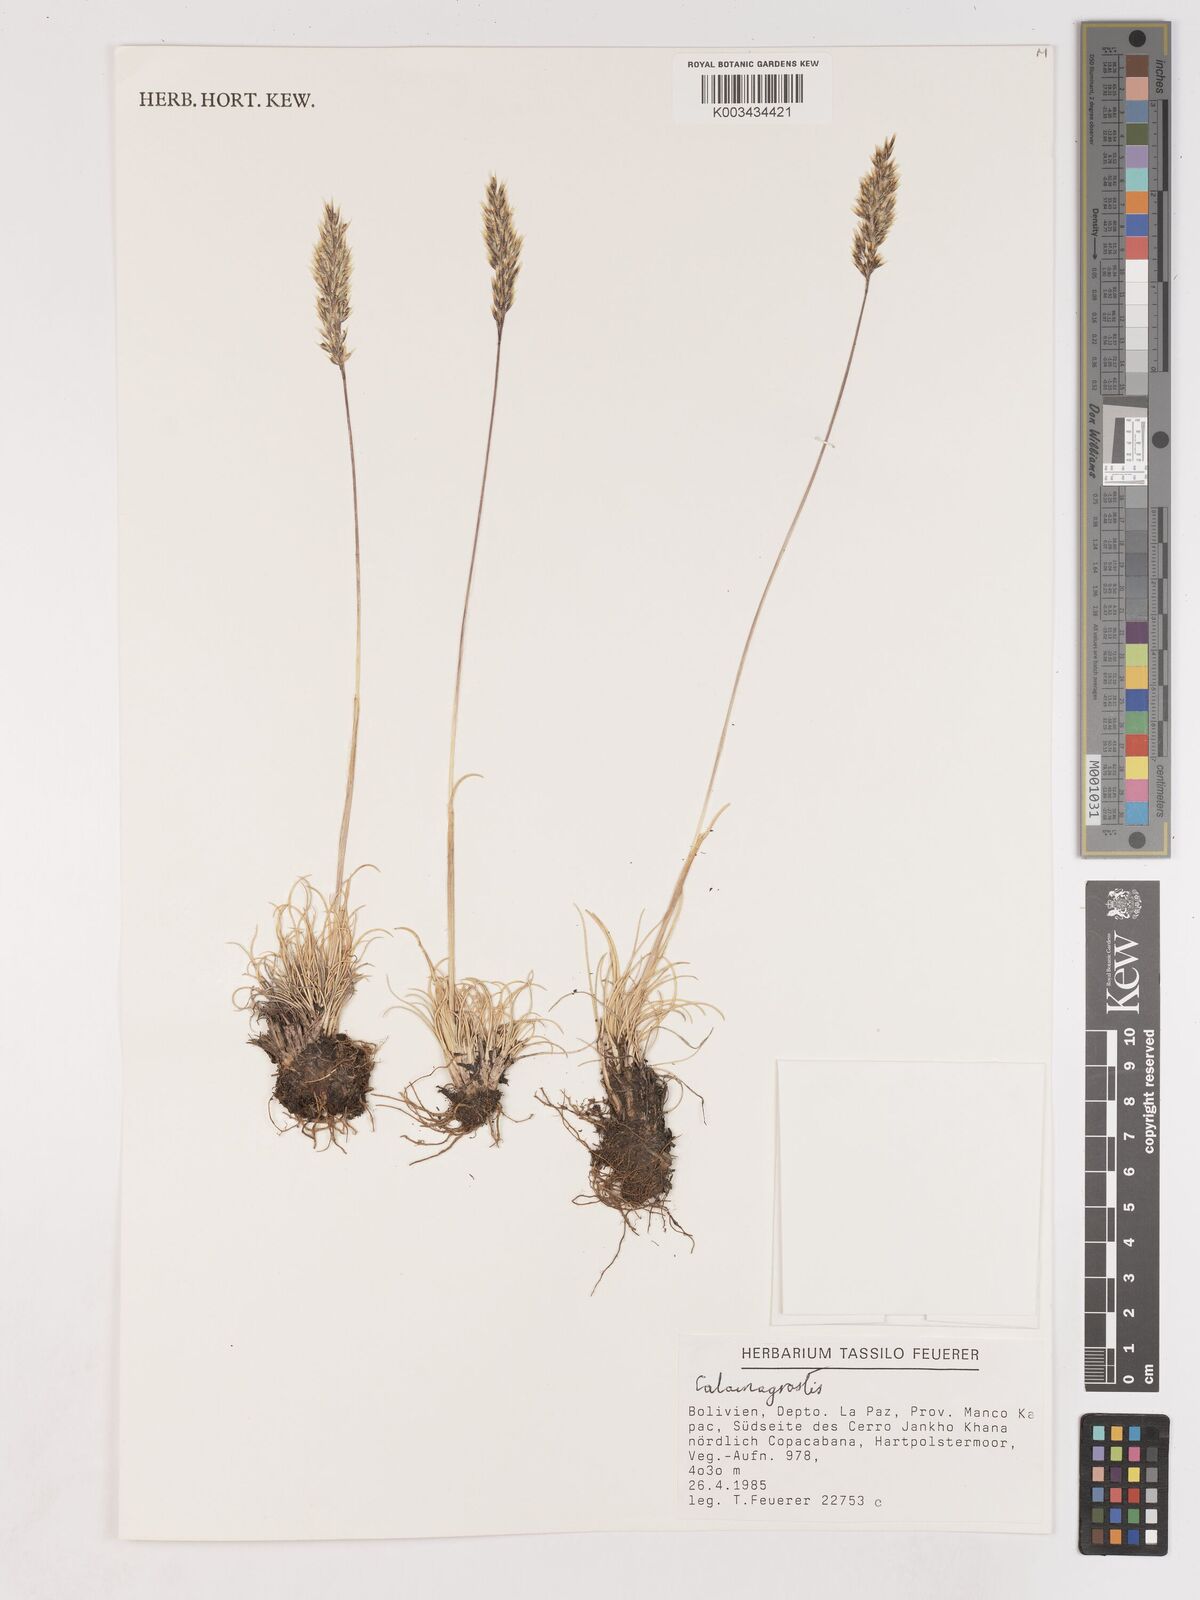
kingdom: Plantae
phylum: Tracheophyta
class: Liliopsida
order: Poales
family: Poaceae
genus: Cinnagrostis
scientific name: Cinnagrostis spicigera
